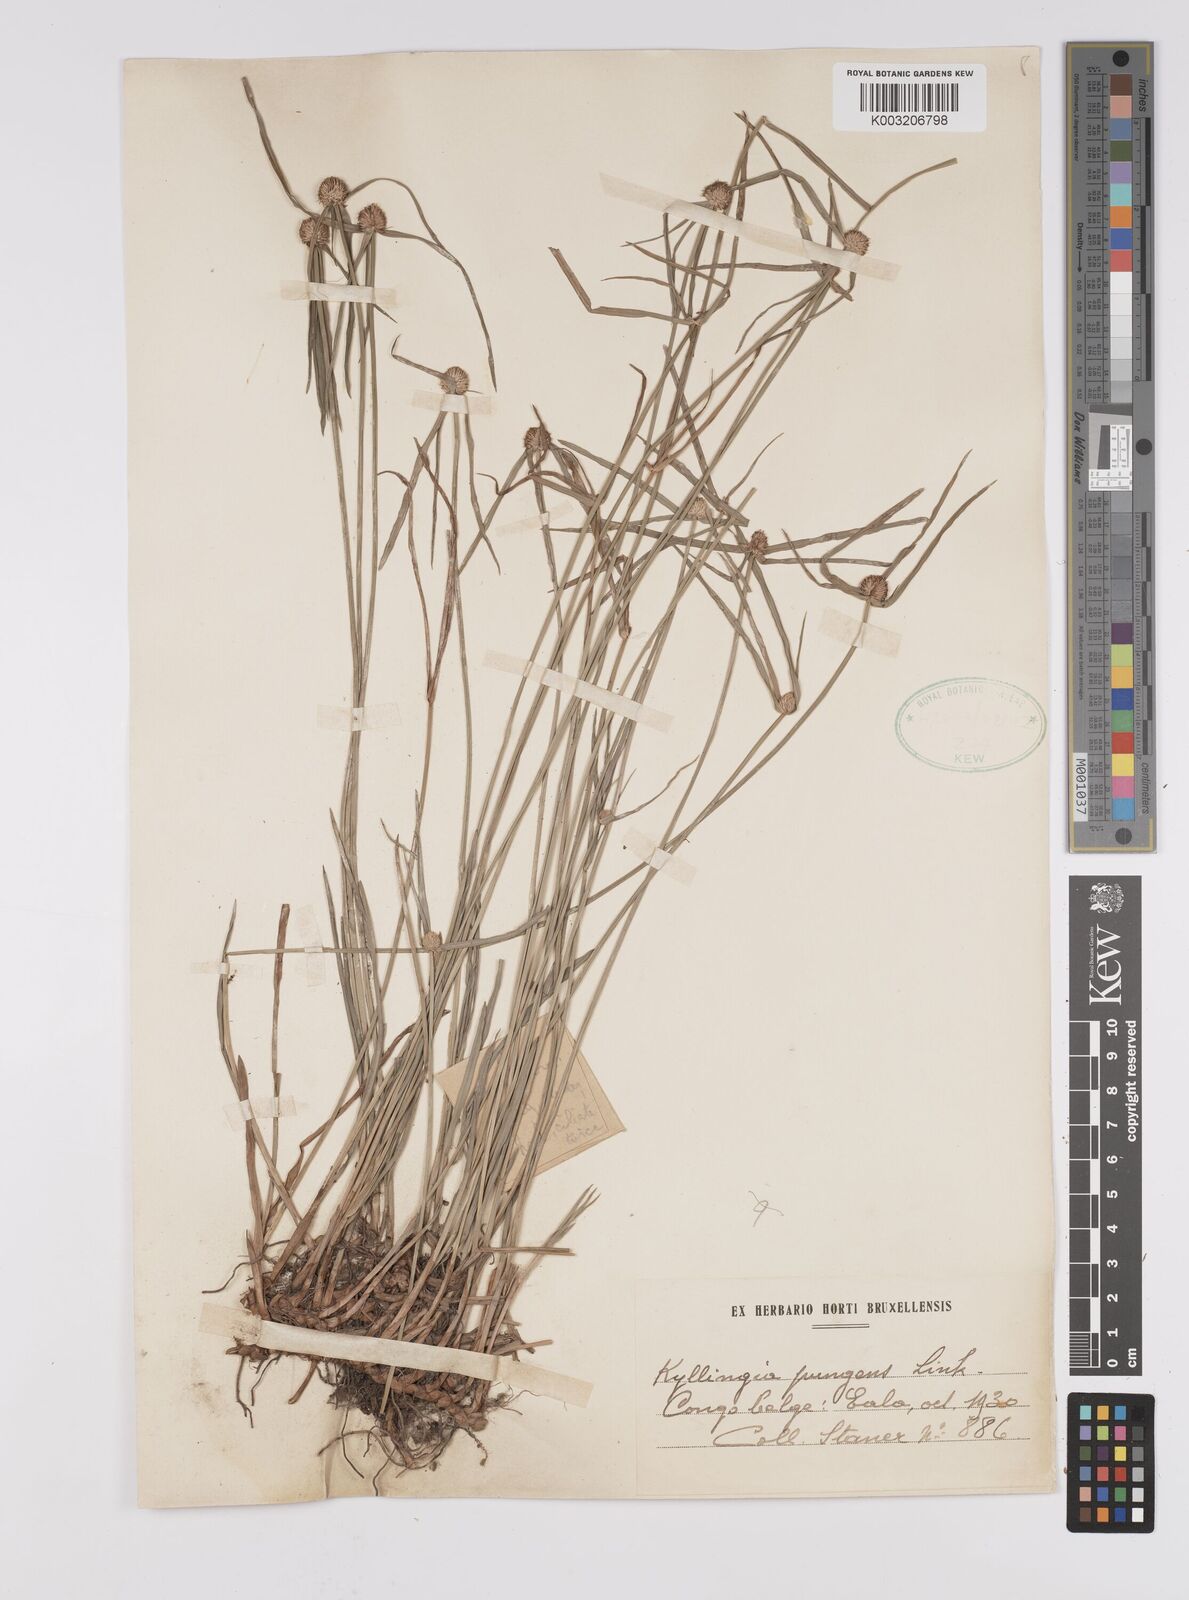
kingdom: Plantae
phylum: Tracheophyta
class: Liliopsida
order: Poales
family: Cyperaceae
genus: Cyperus
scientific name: Cyperus
